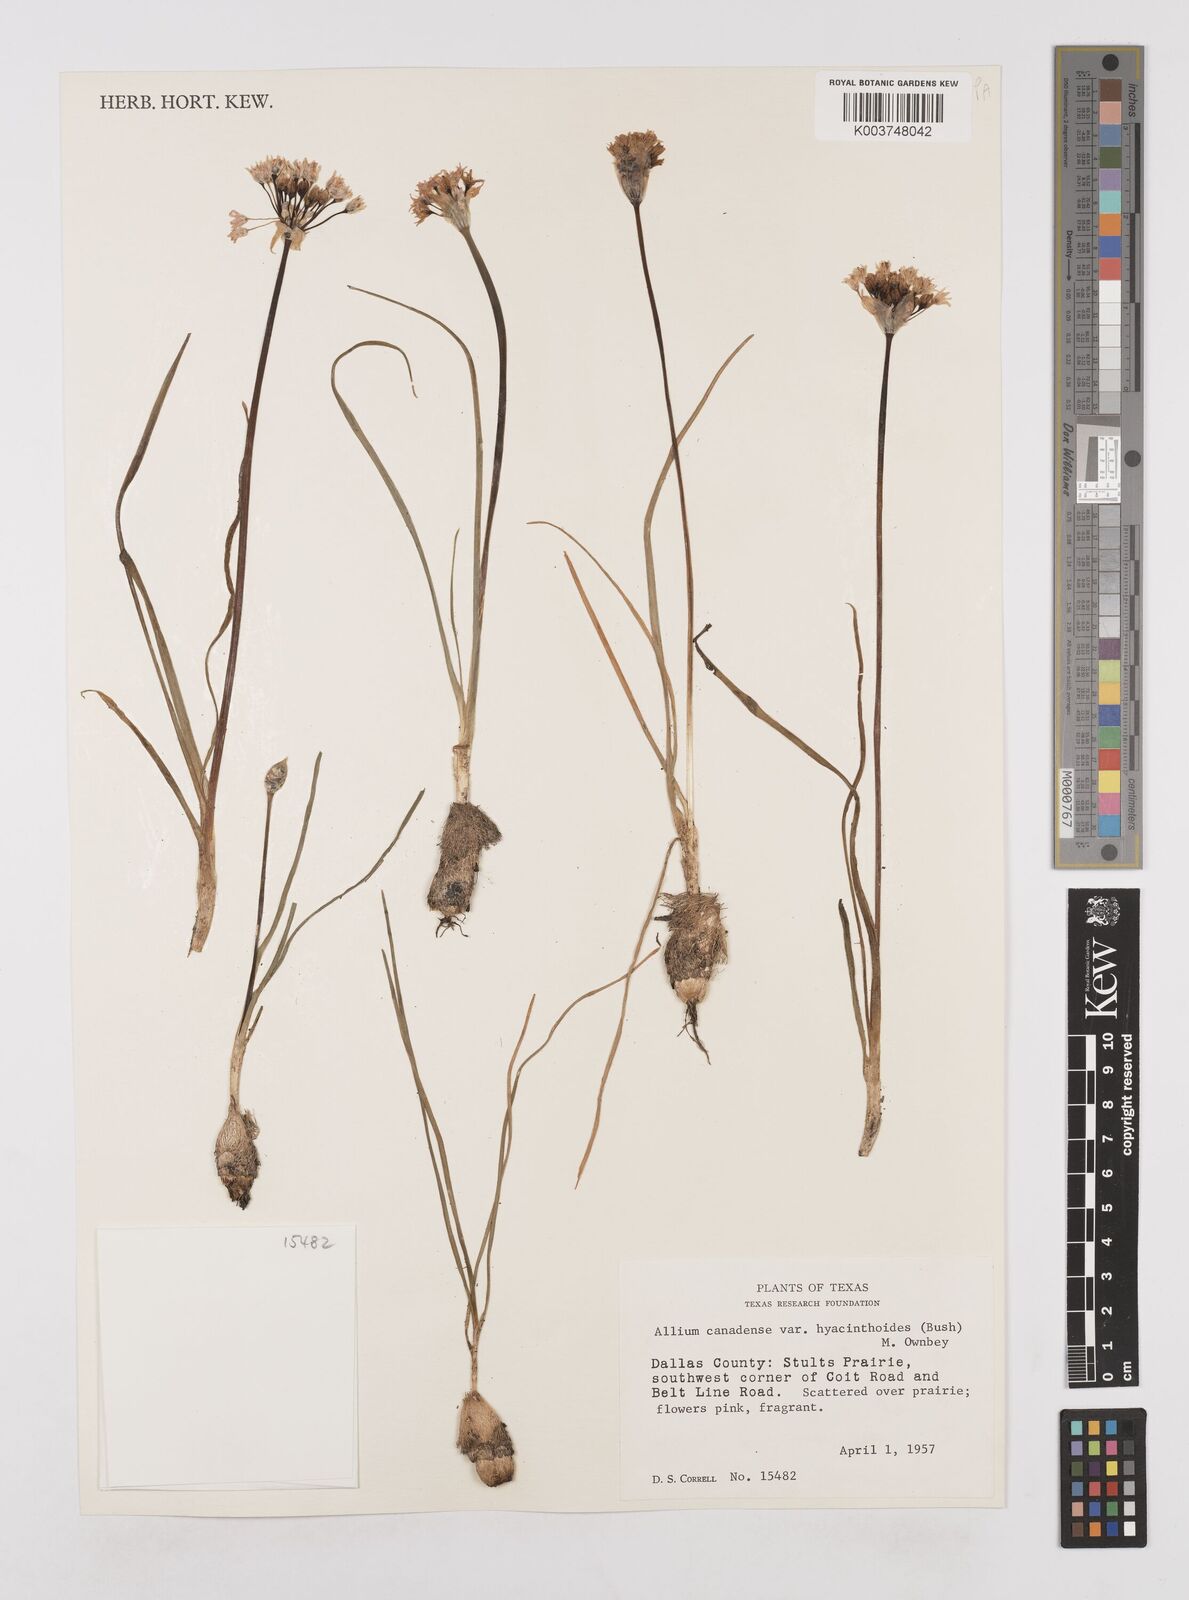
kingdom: Plantae
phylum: Tracheophyta
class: Liliopsida
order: Asparagales
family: Amaryllidaceae
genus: Allium
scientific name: Allium canadense
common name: Meadow garlic
